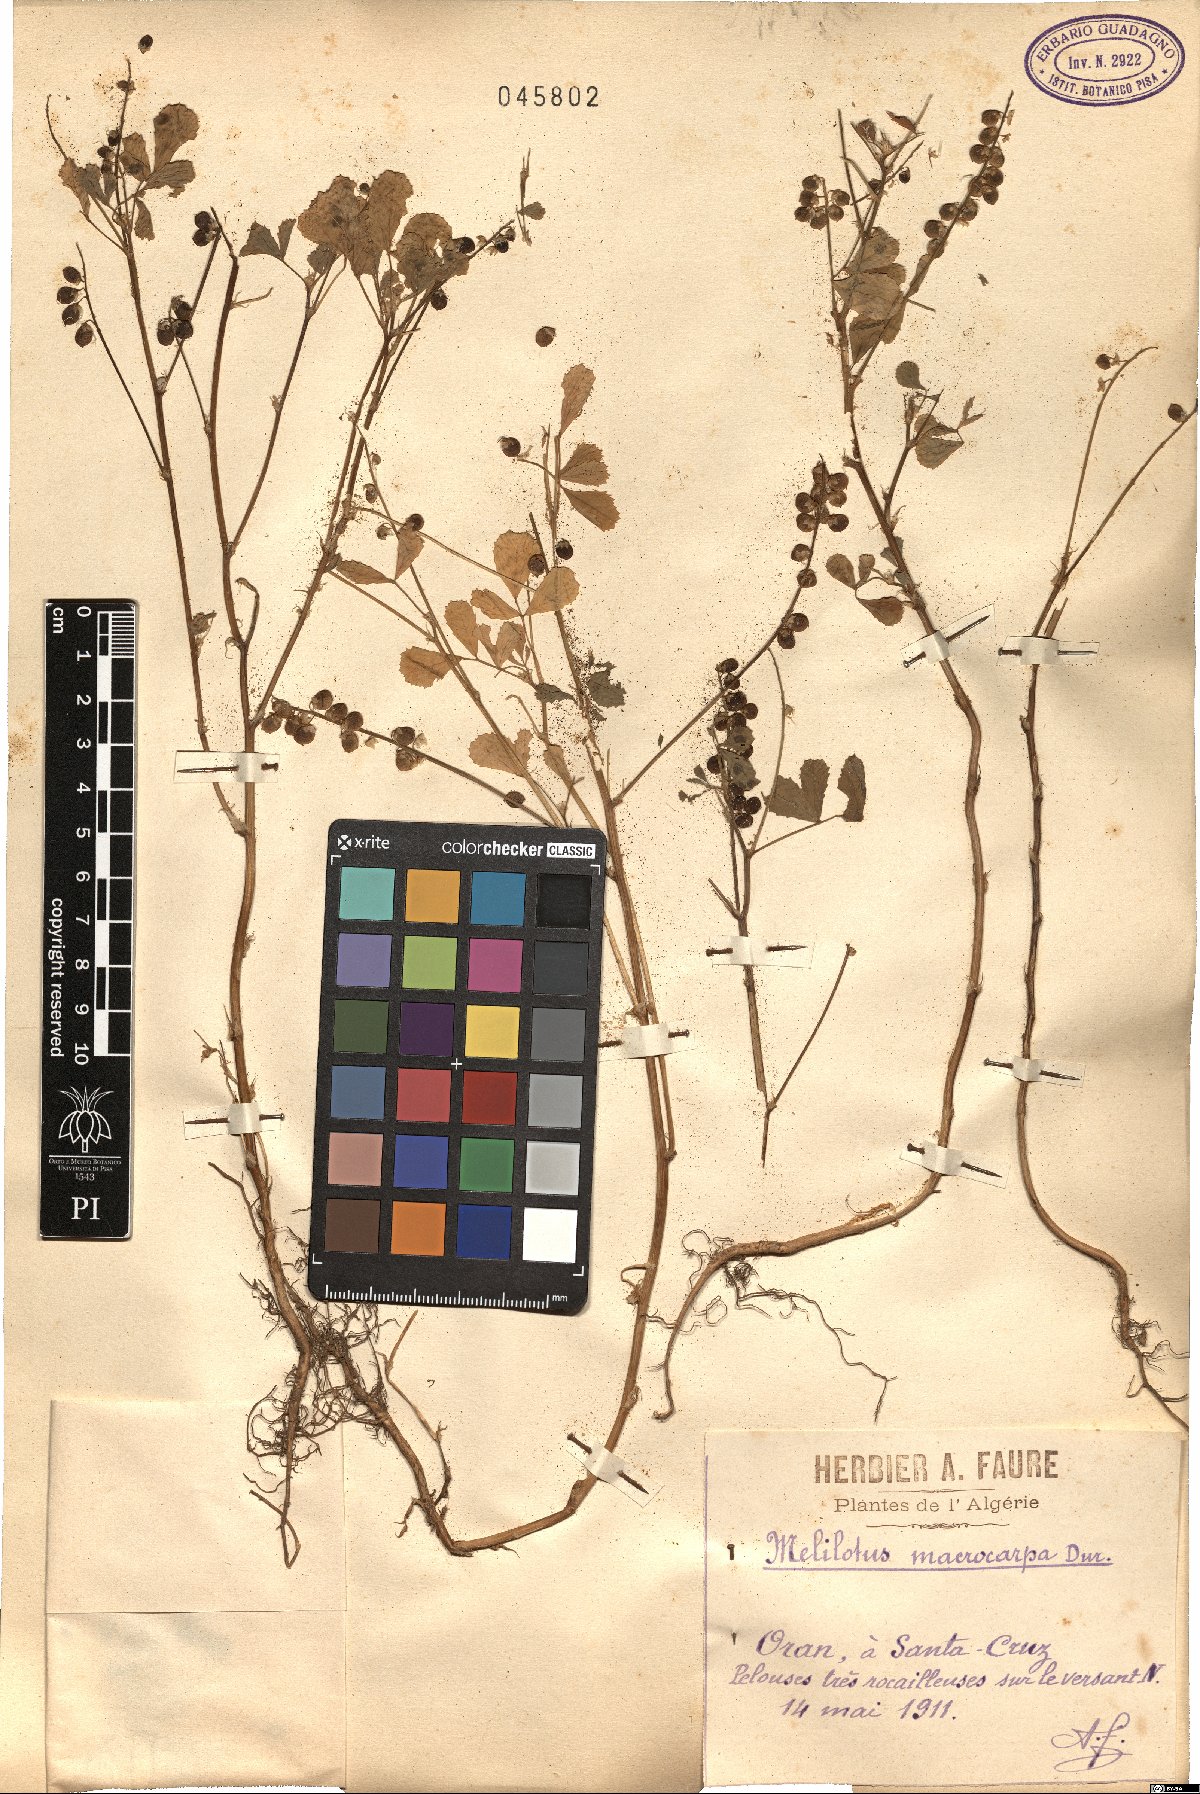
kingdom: Plantae
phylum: Tracheophyta
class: Magnoliopsida
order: Fabales
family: Fabaceae
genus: Melilotus
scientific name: Melilotus macrocarpus
